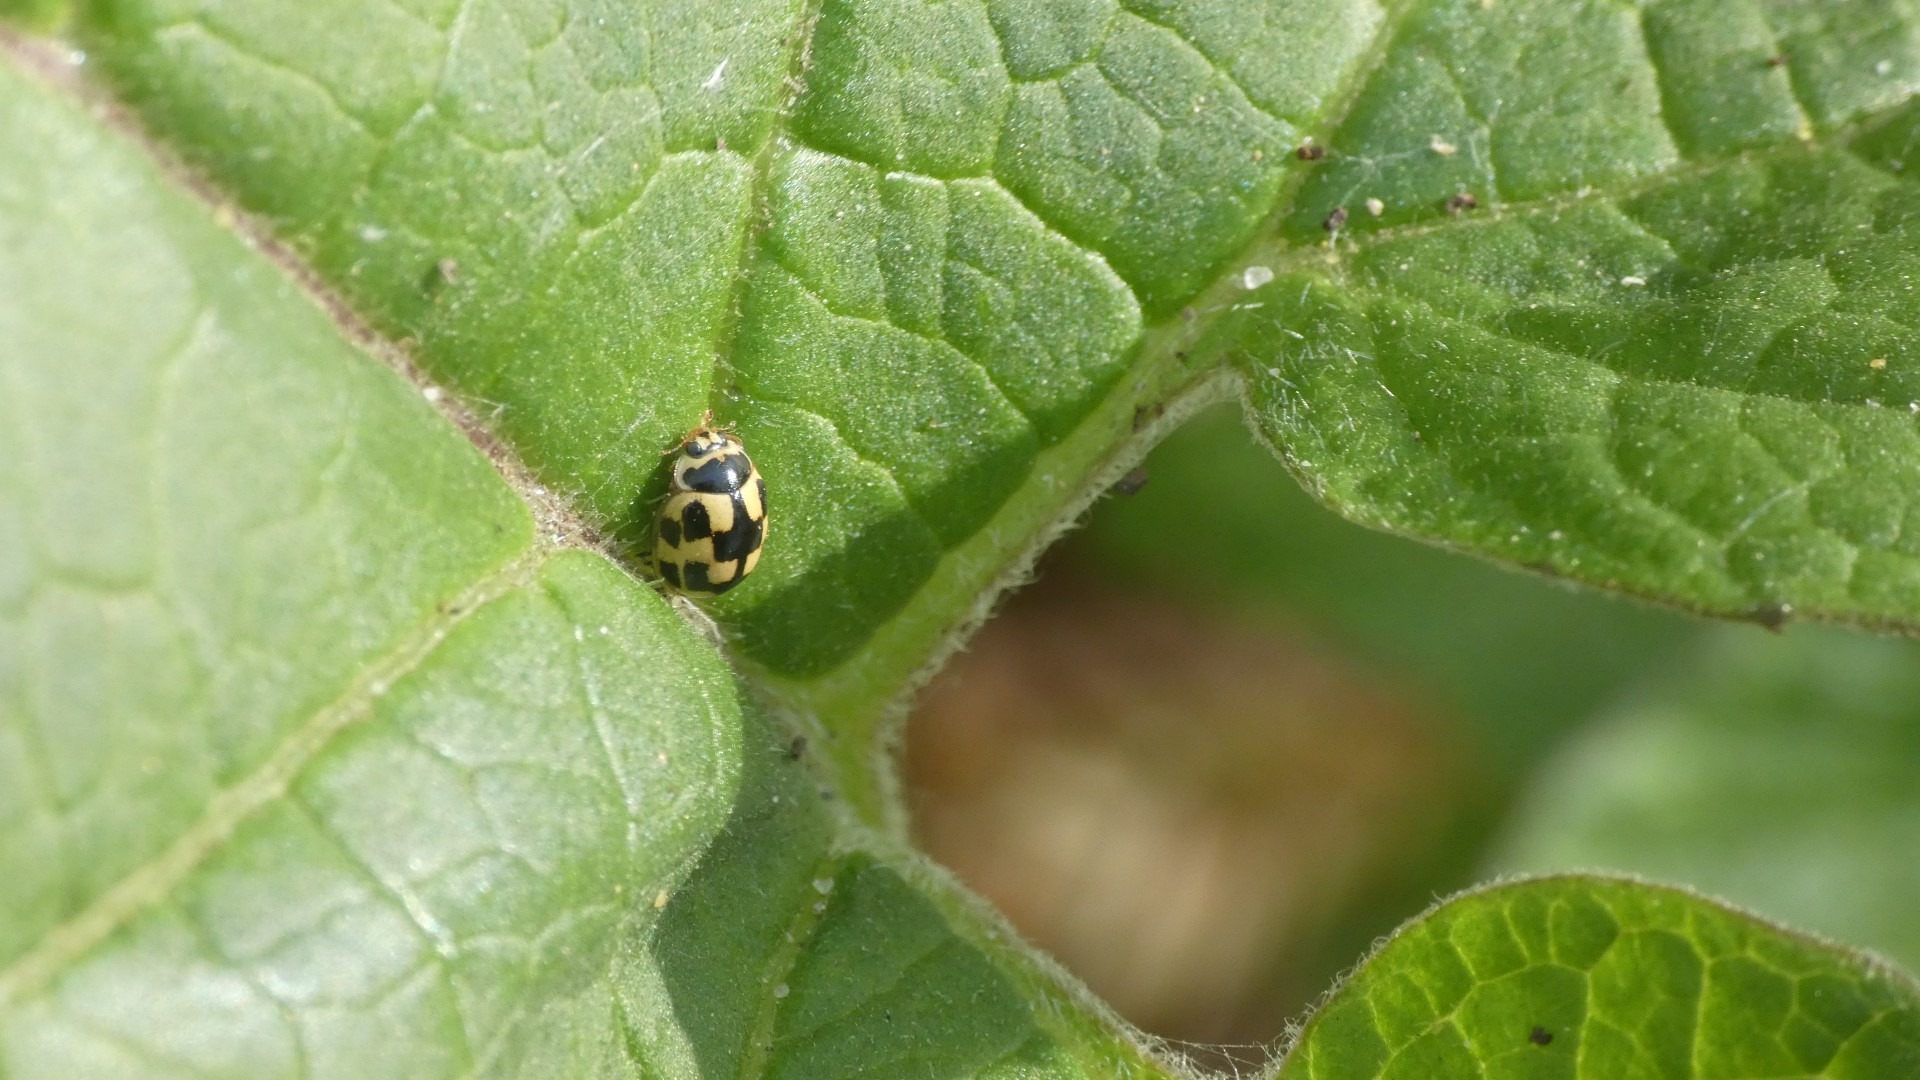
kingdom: Animalia
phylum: Arthropoda
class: Insecta
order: Coleoptera
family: Coccinellidae
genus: Propylaea
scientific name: Propylaea quatuordecimpunctata
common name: Skakbræt
